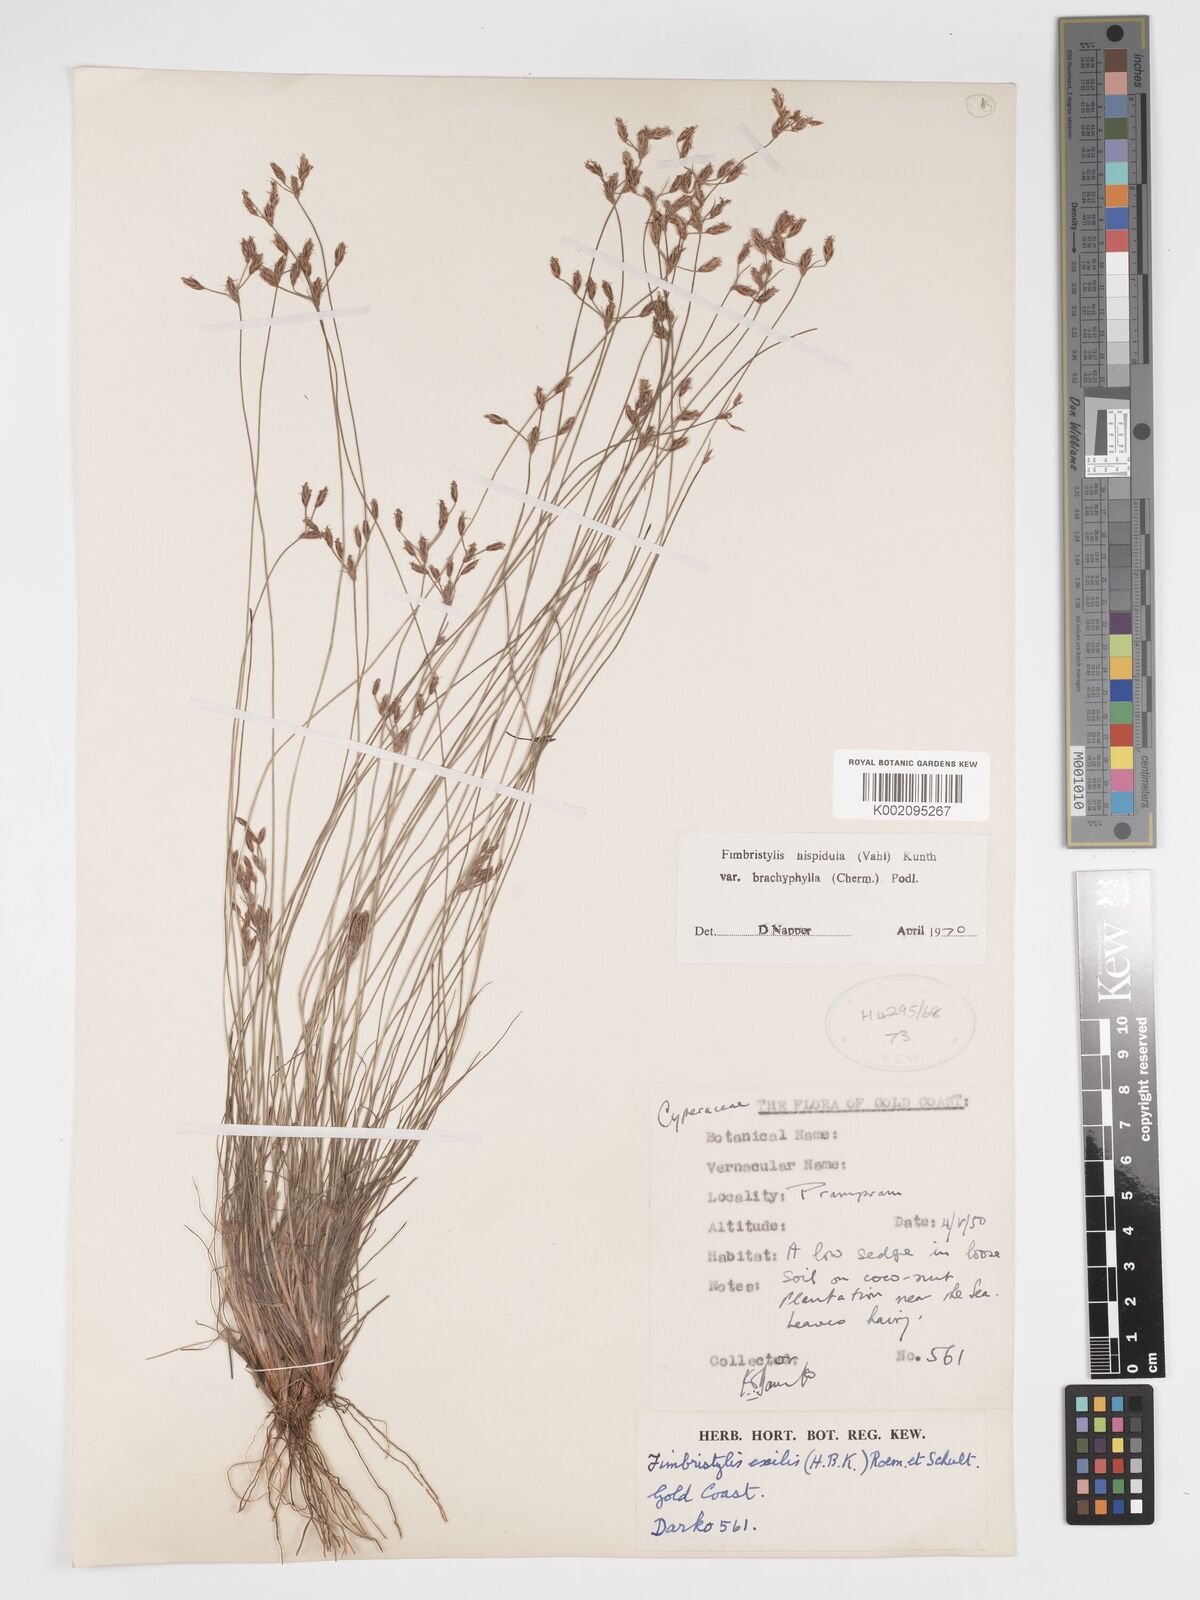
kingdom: Plantae
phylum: Tracheophyta
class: Liliopsida
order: Poales
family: Cyperaceae
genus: Bulbostylis
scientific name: Bulbostylis hispidula
